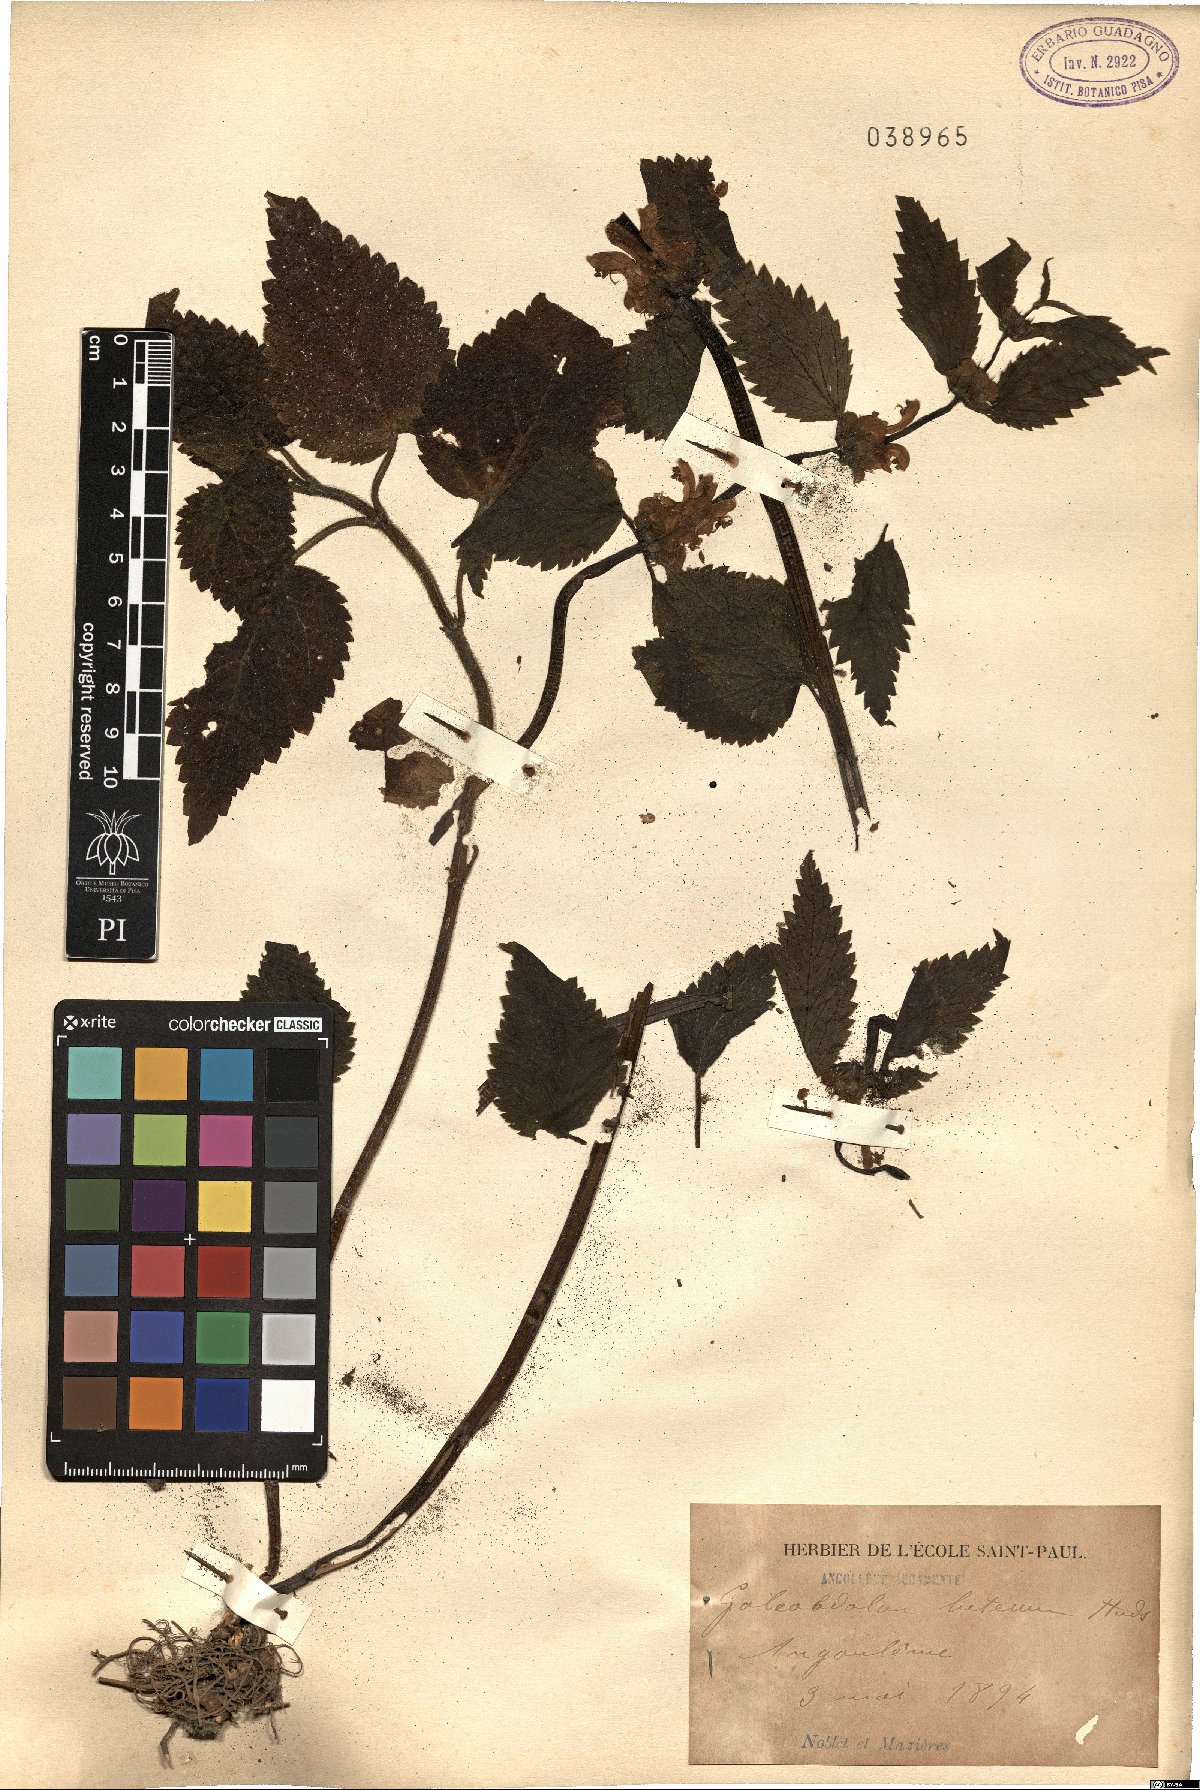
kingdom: Plantae
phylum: Tracheophyta
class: Magnoliopsida
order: Lamiales
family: Lamiaceae
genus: Lamium
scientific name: Lamium galeobdolon
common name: Yellow archangel
